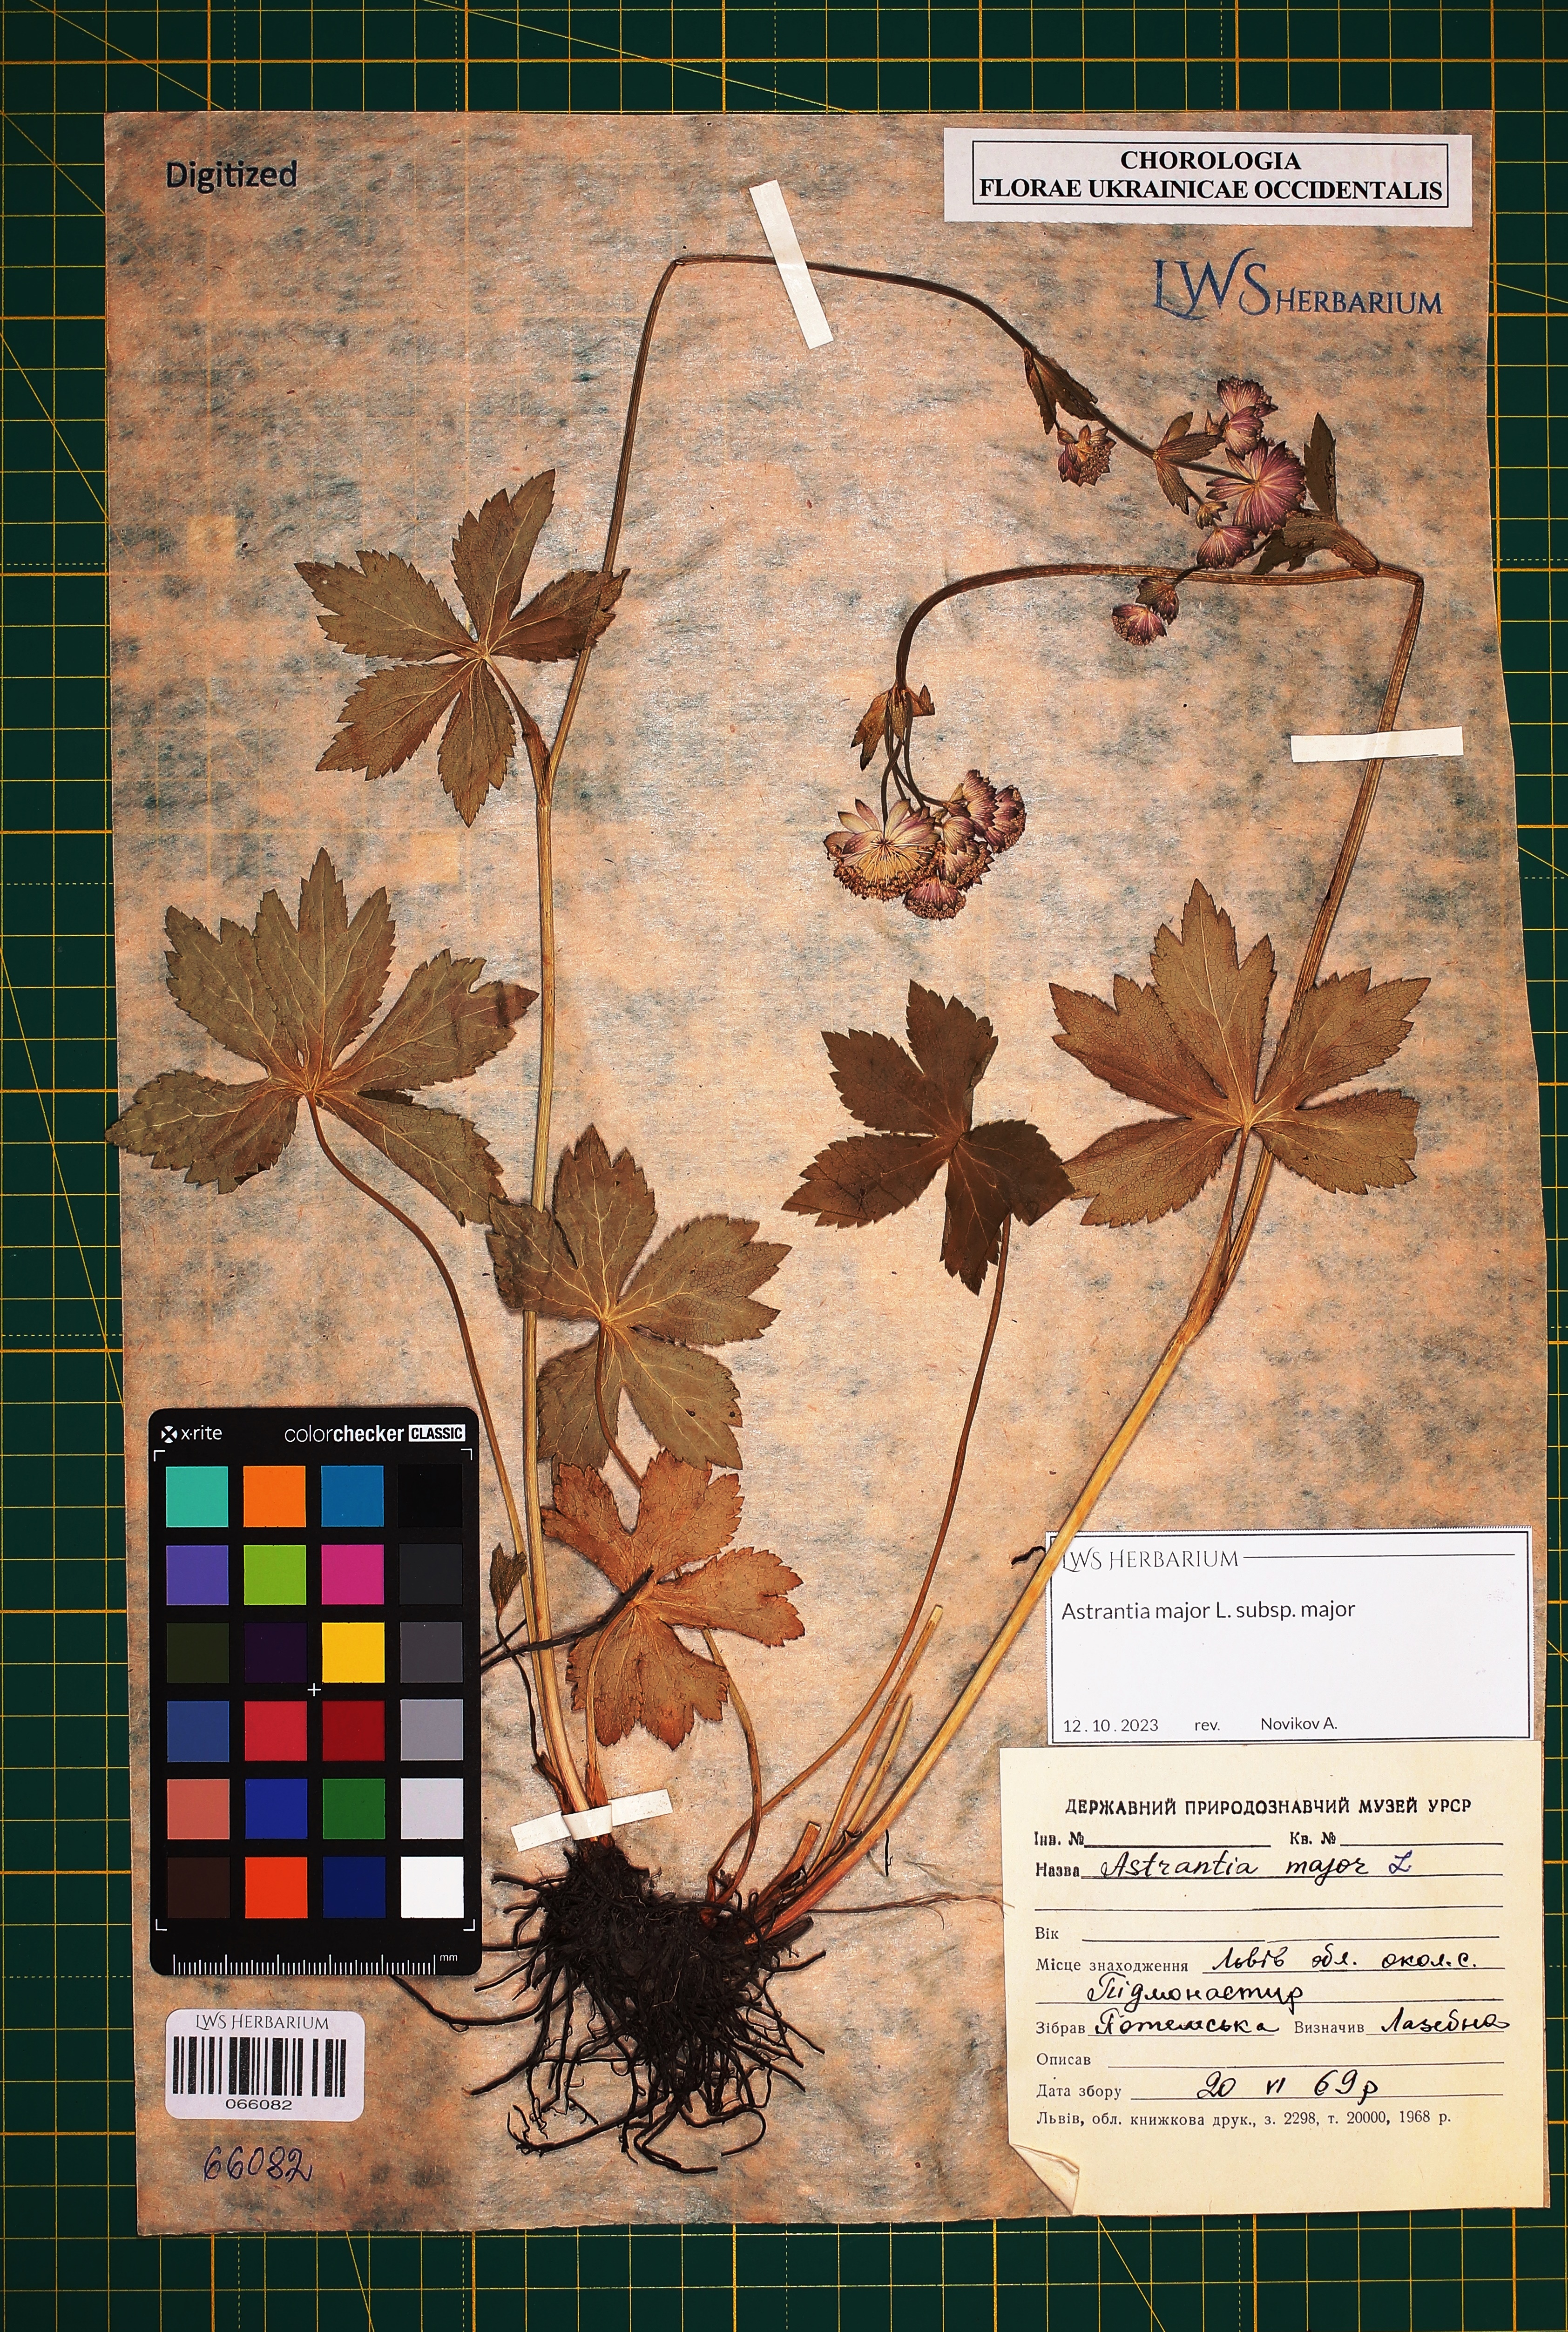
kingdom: Plantae
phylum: Tracheophyta
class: Magnoliopsida
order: Apiales
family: Apiaceae
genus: Astrantia
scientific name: Astrantia major
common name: Greater masterwort
